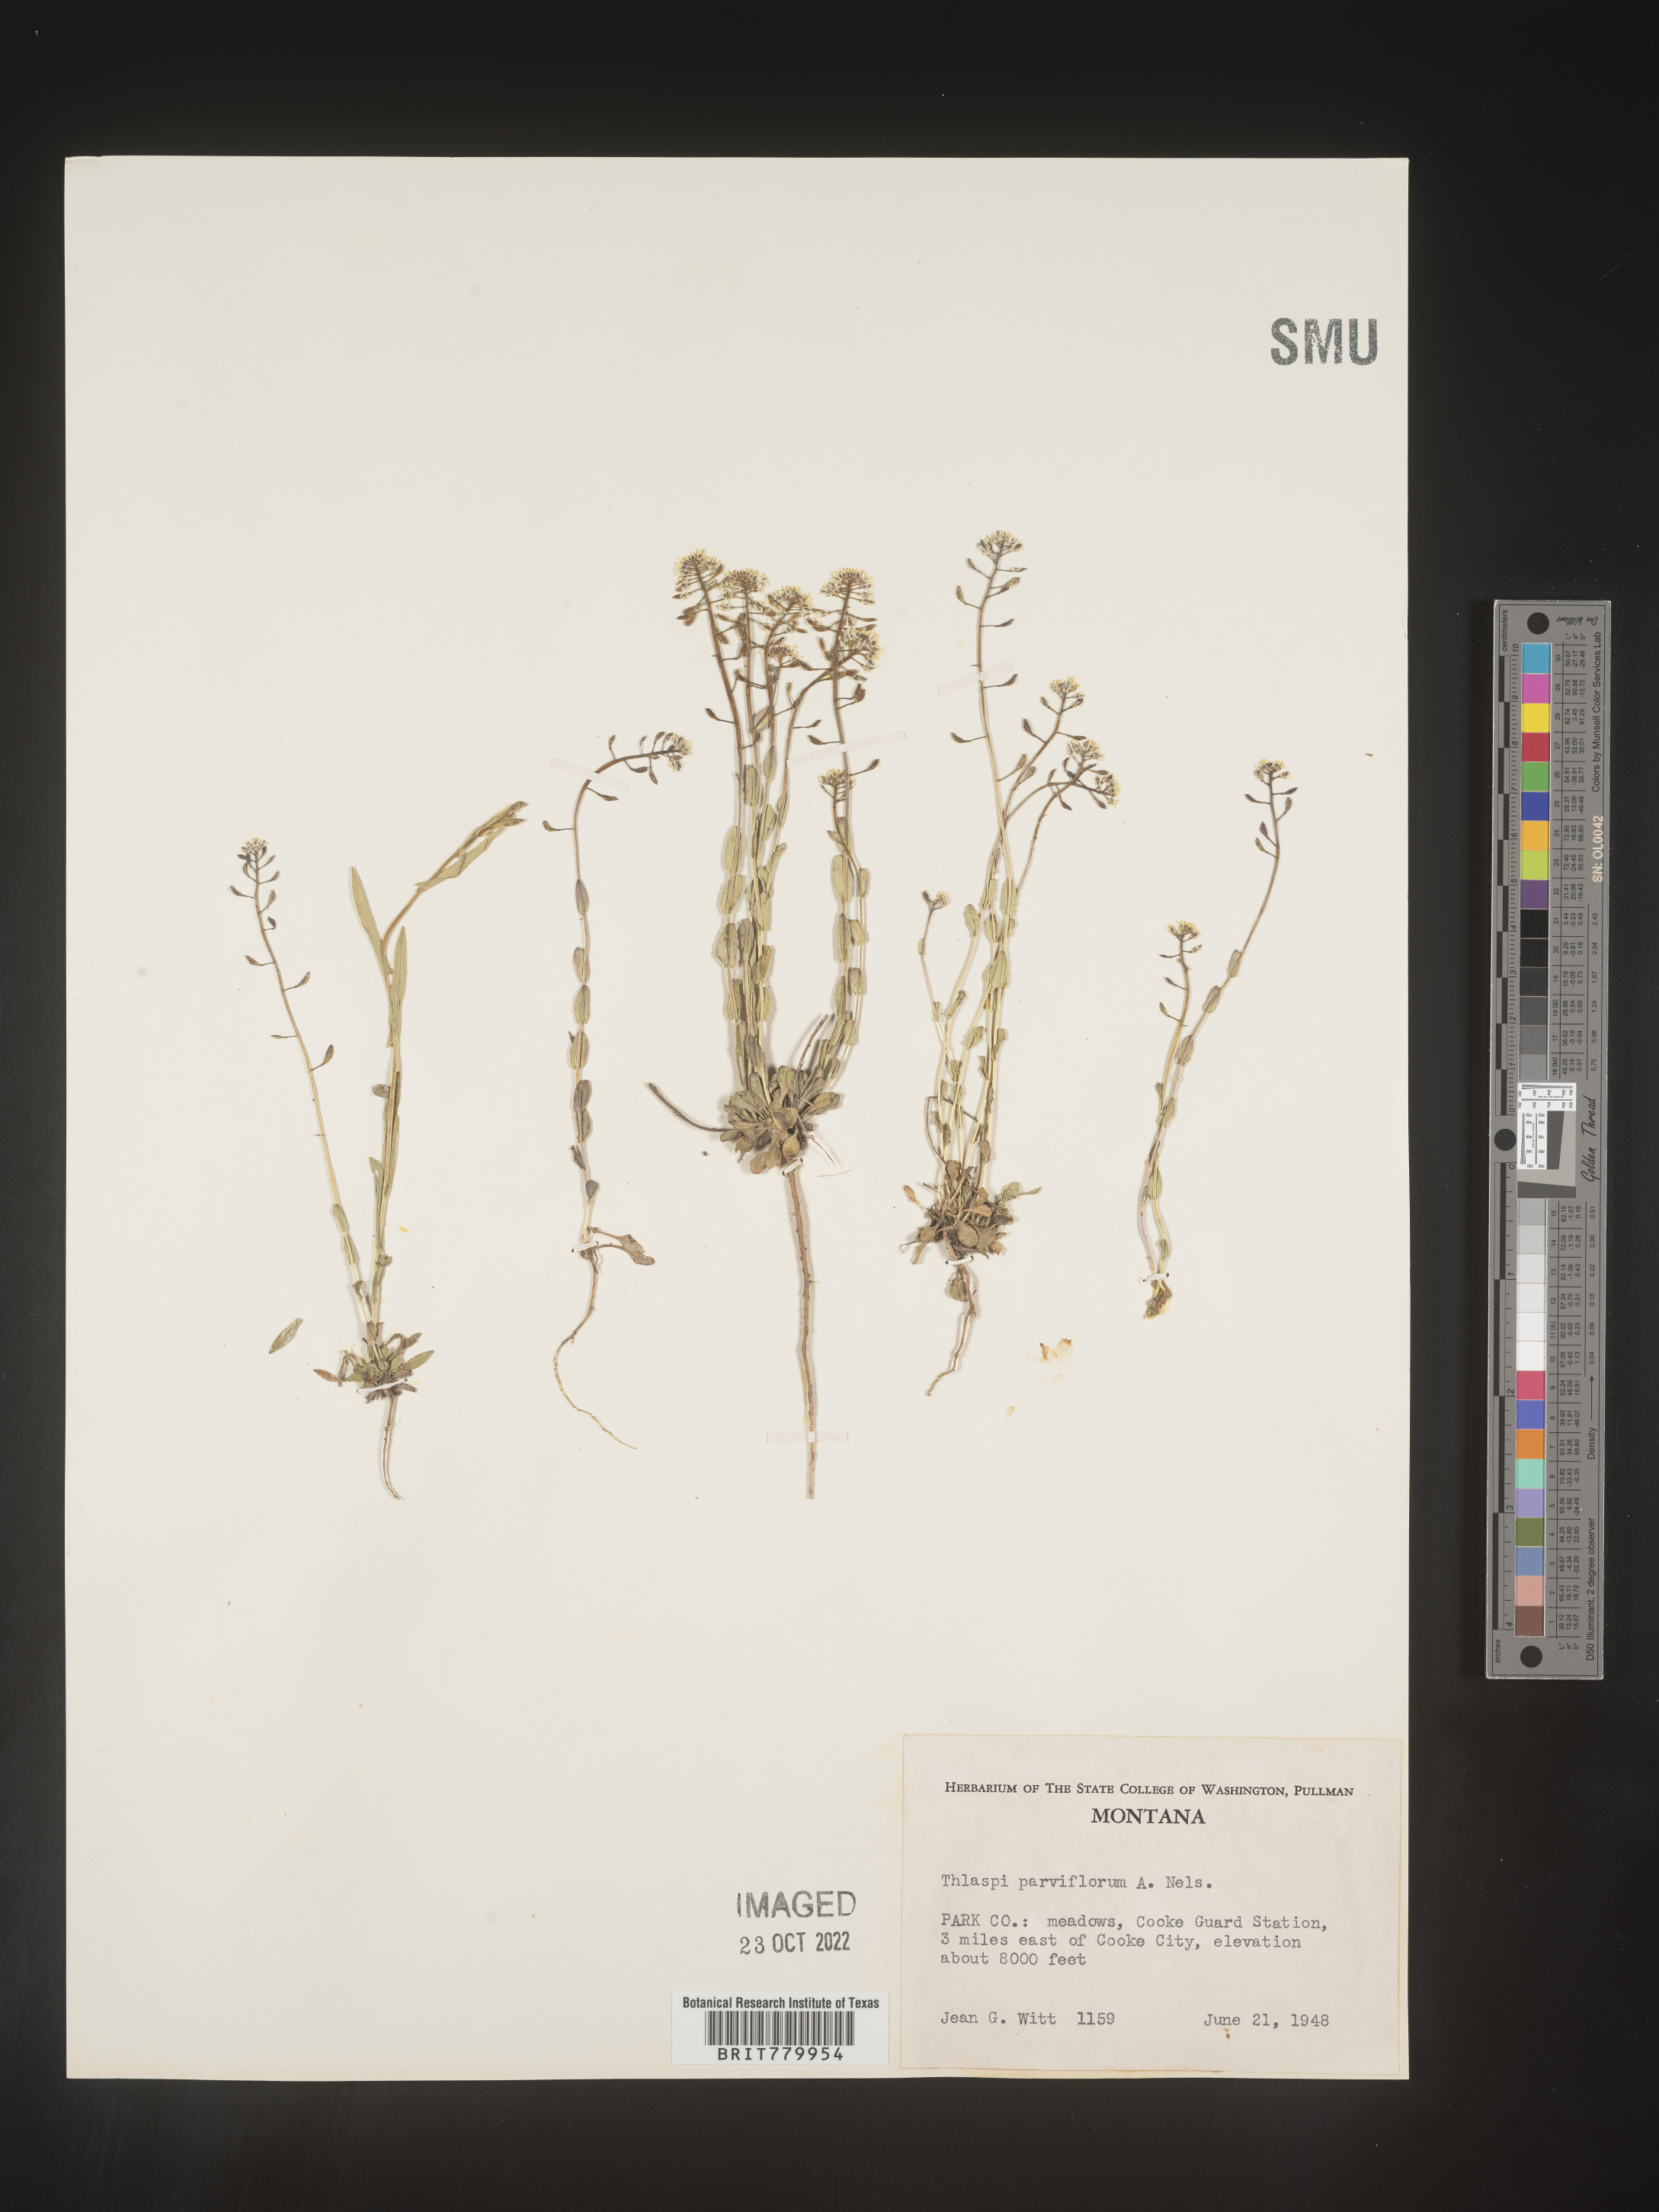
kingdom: Plantae
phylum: Tracheophyta
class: Magnoliopsida
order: Brassicales
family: Brassicaceae
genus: Thlaspi
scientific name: Thlaspi
